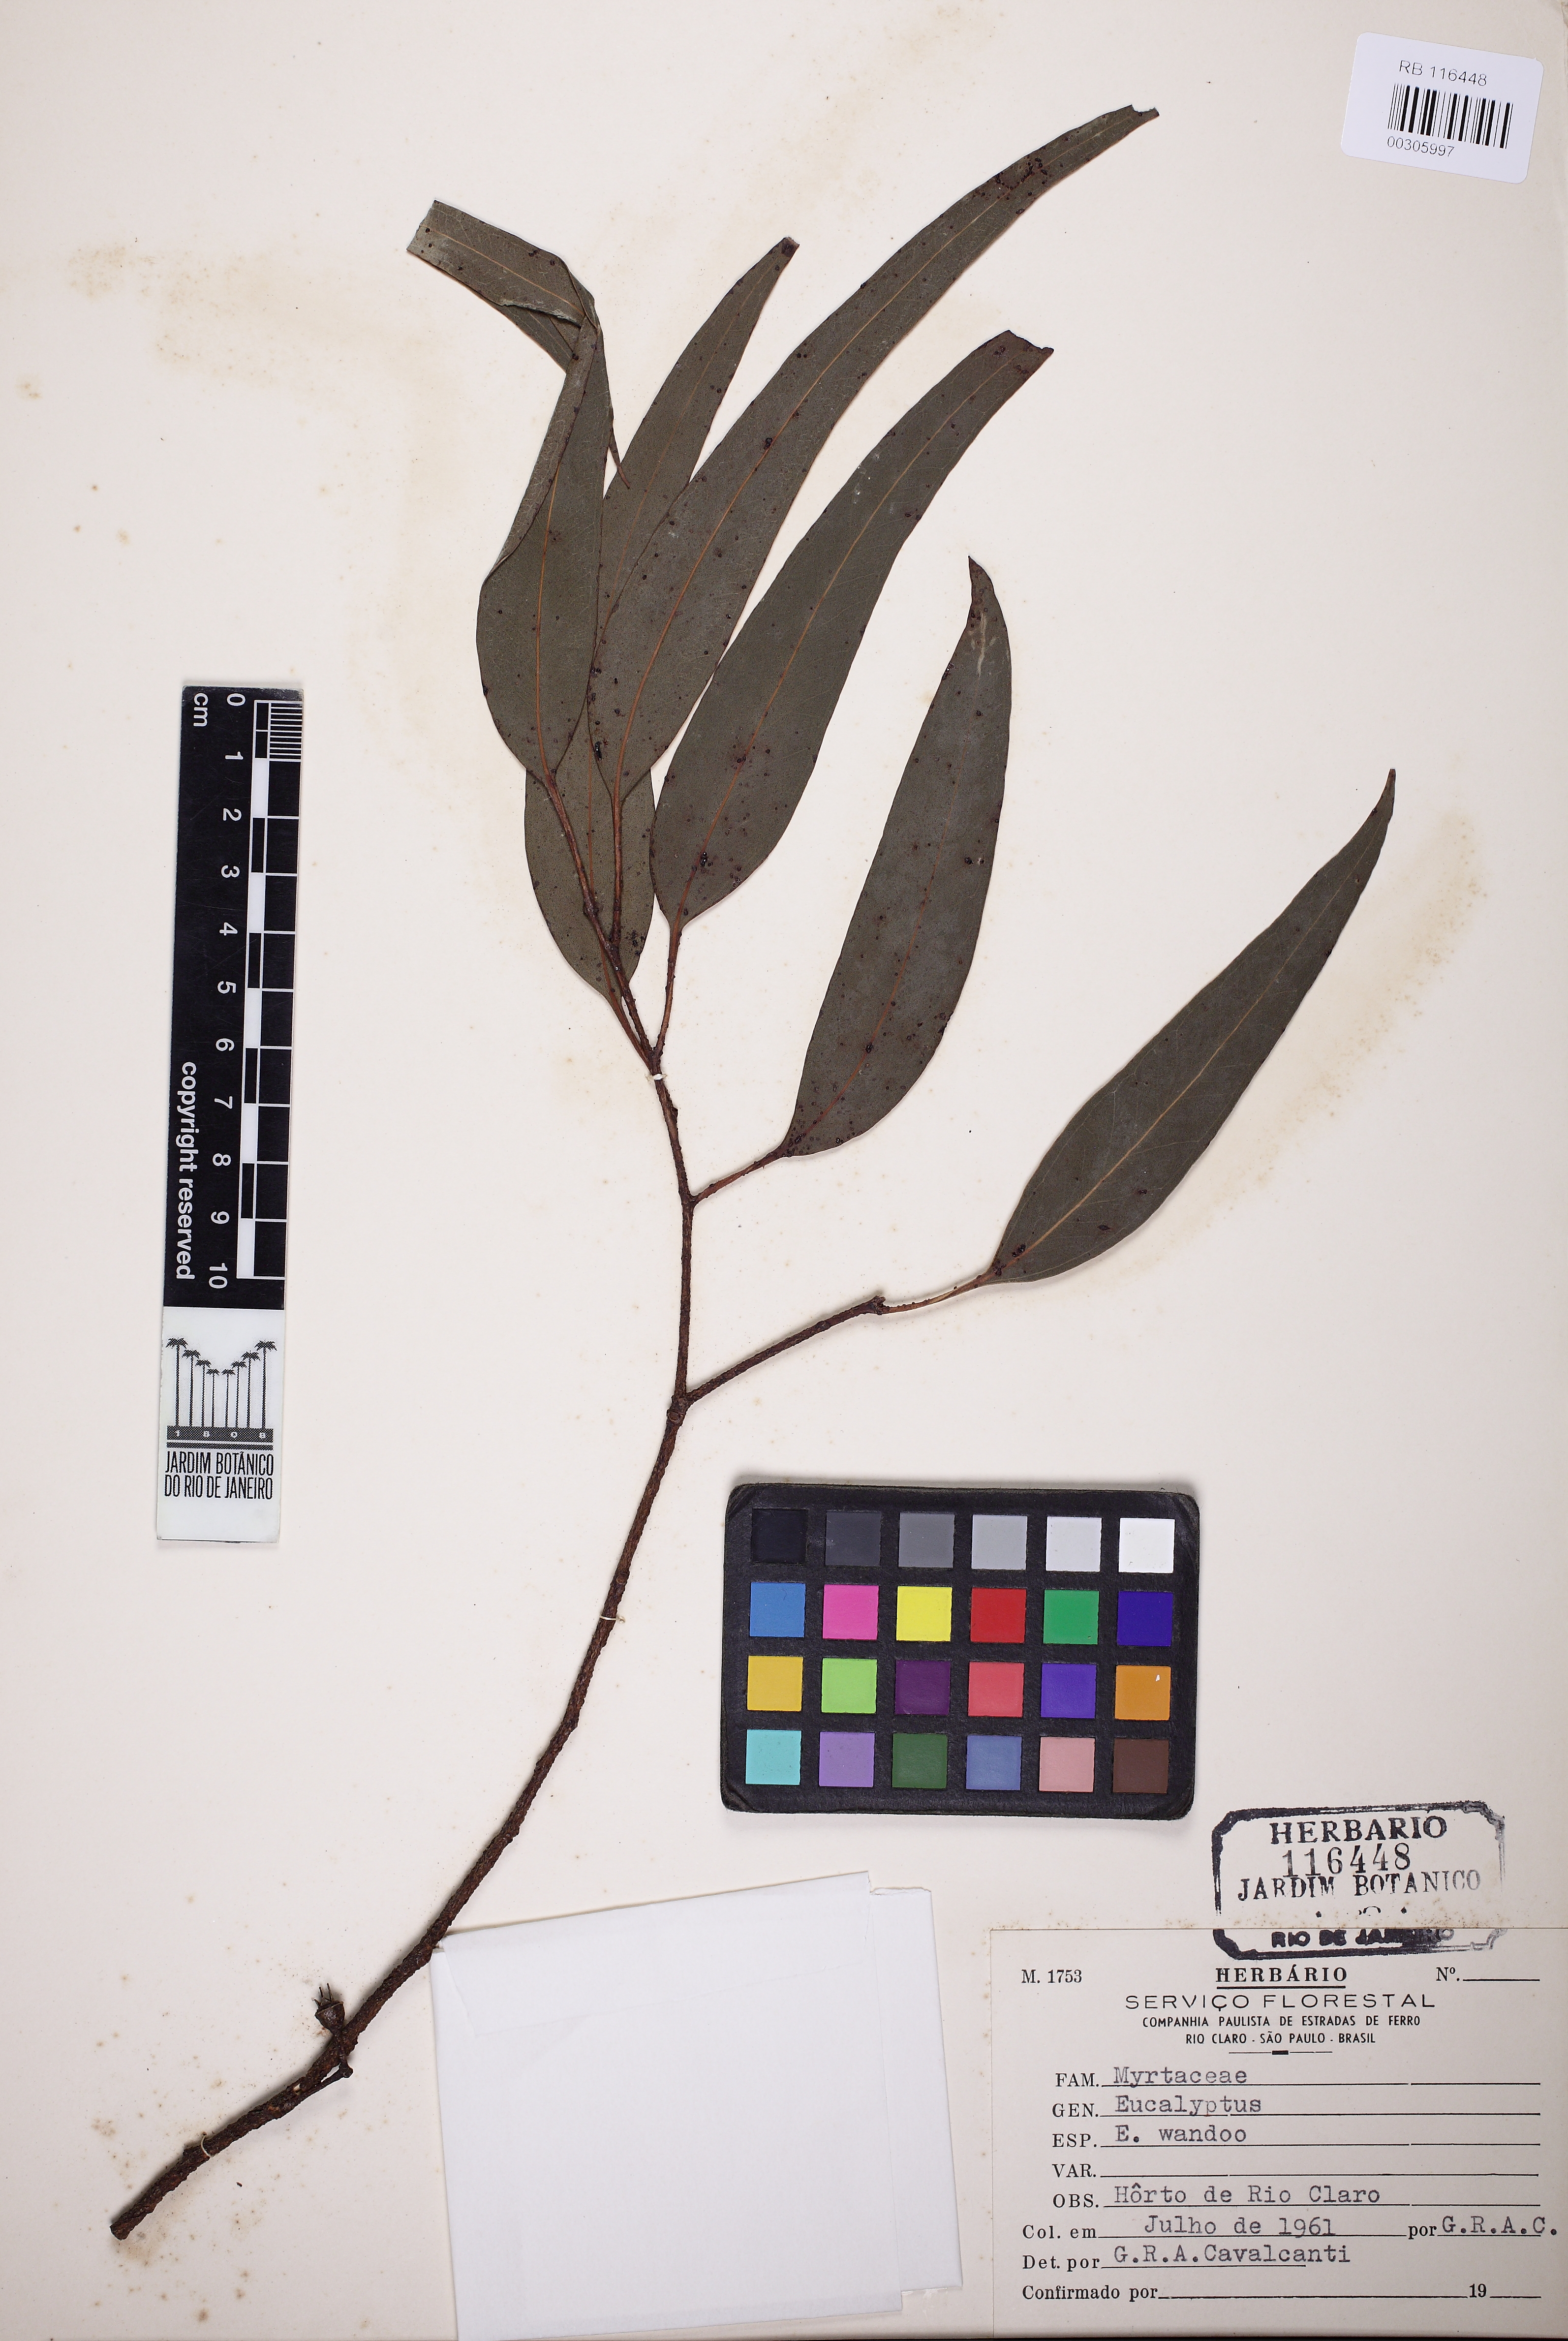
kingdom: Plantae
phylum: Tracheophyta
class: Magnoliopsida
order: Myrtales
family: Myrtaceae
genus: Eucalyptus
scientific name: Eucalyptus wandoo
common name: White gum
